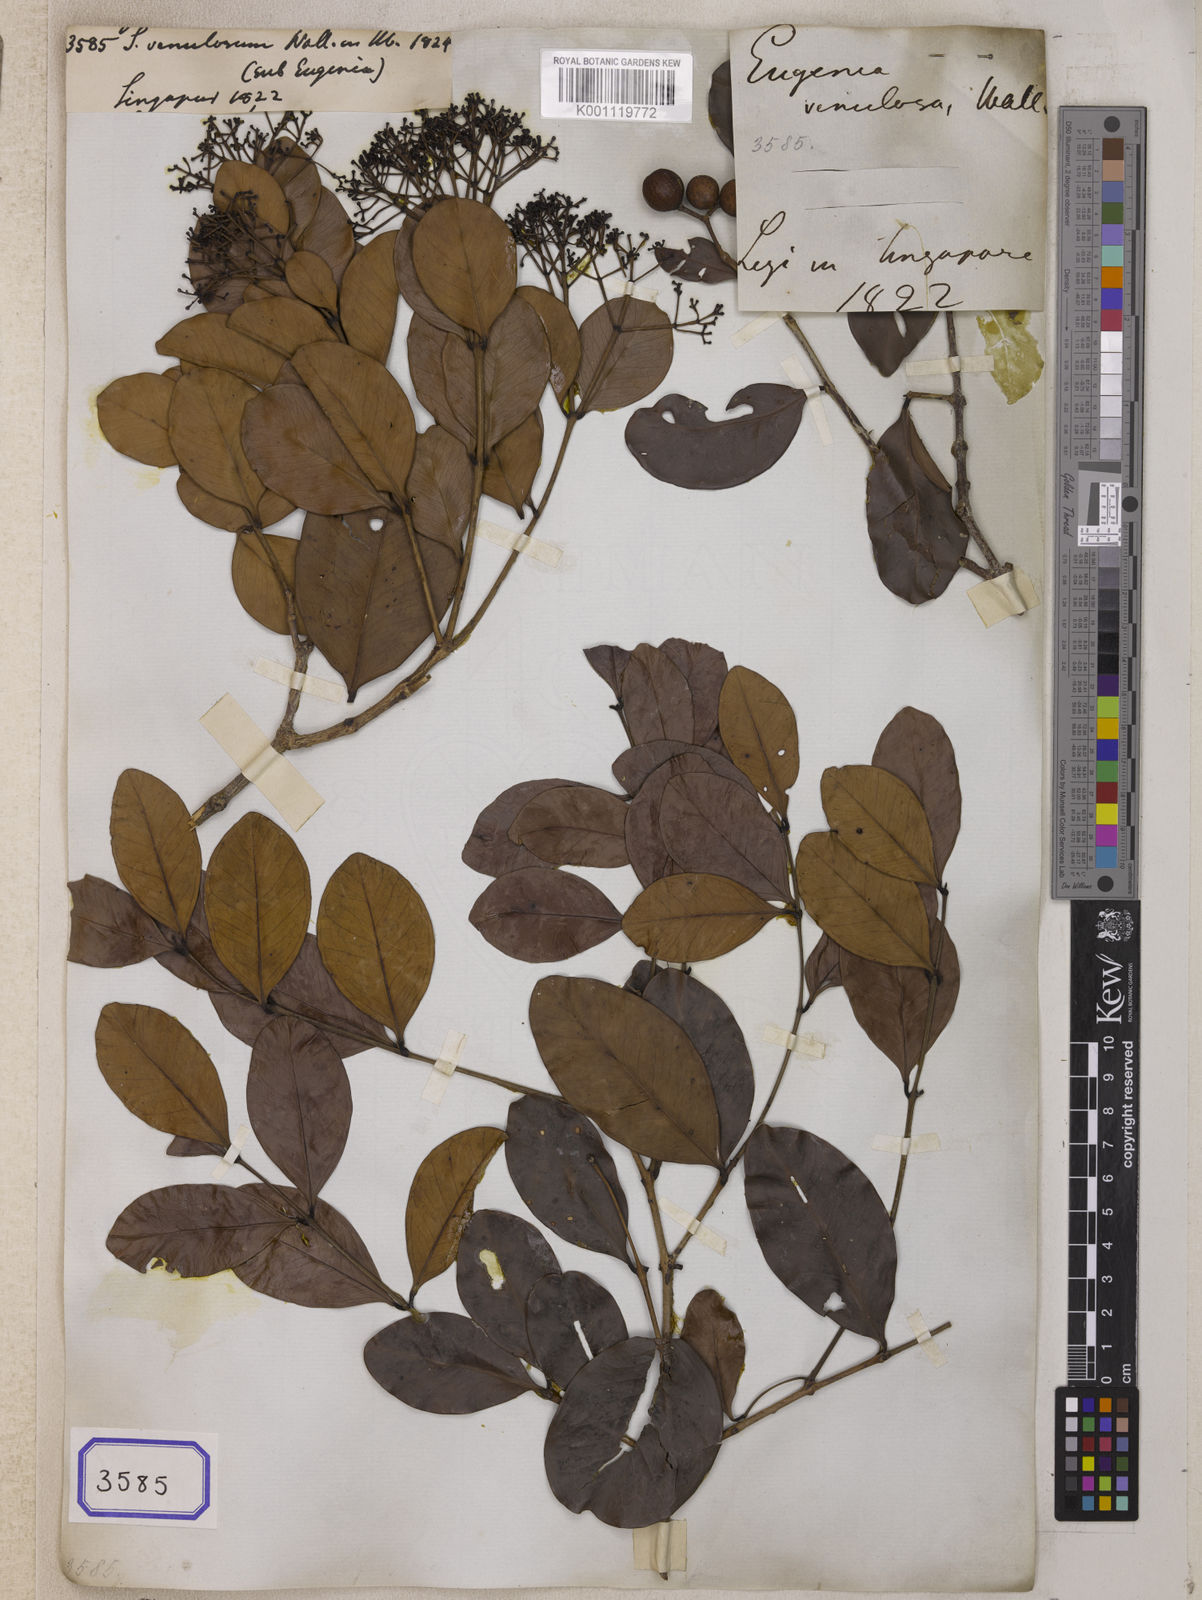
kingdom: Plantae
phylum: Tracheophyta
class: Magnoliopsida
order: Myrtales
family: Myrtaceae
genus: Syzygium
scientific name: Syzygium
